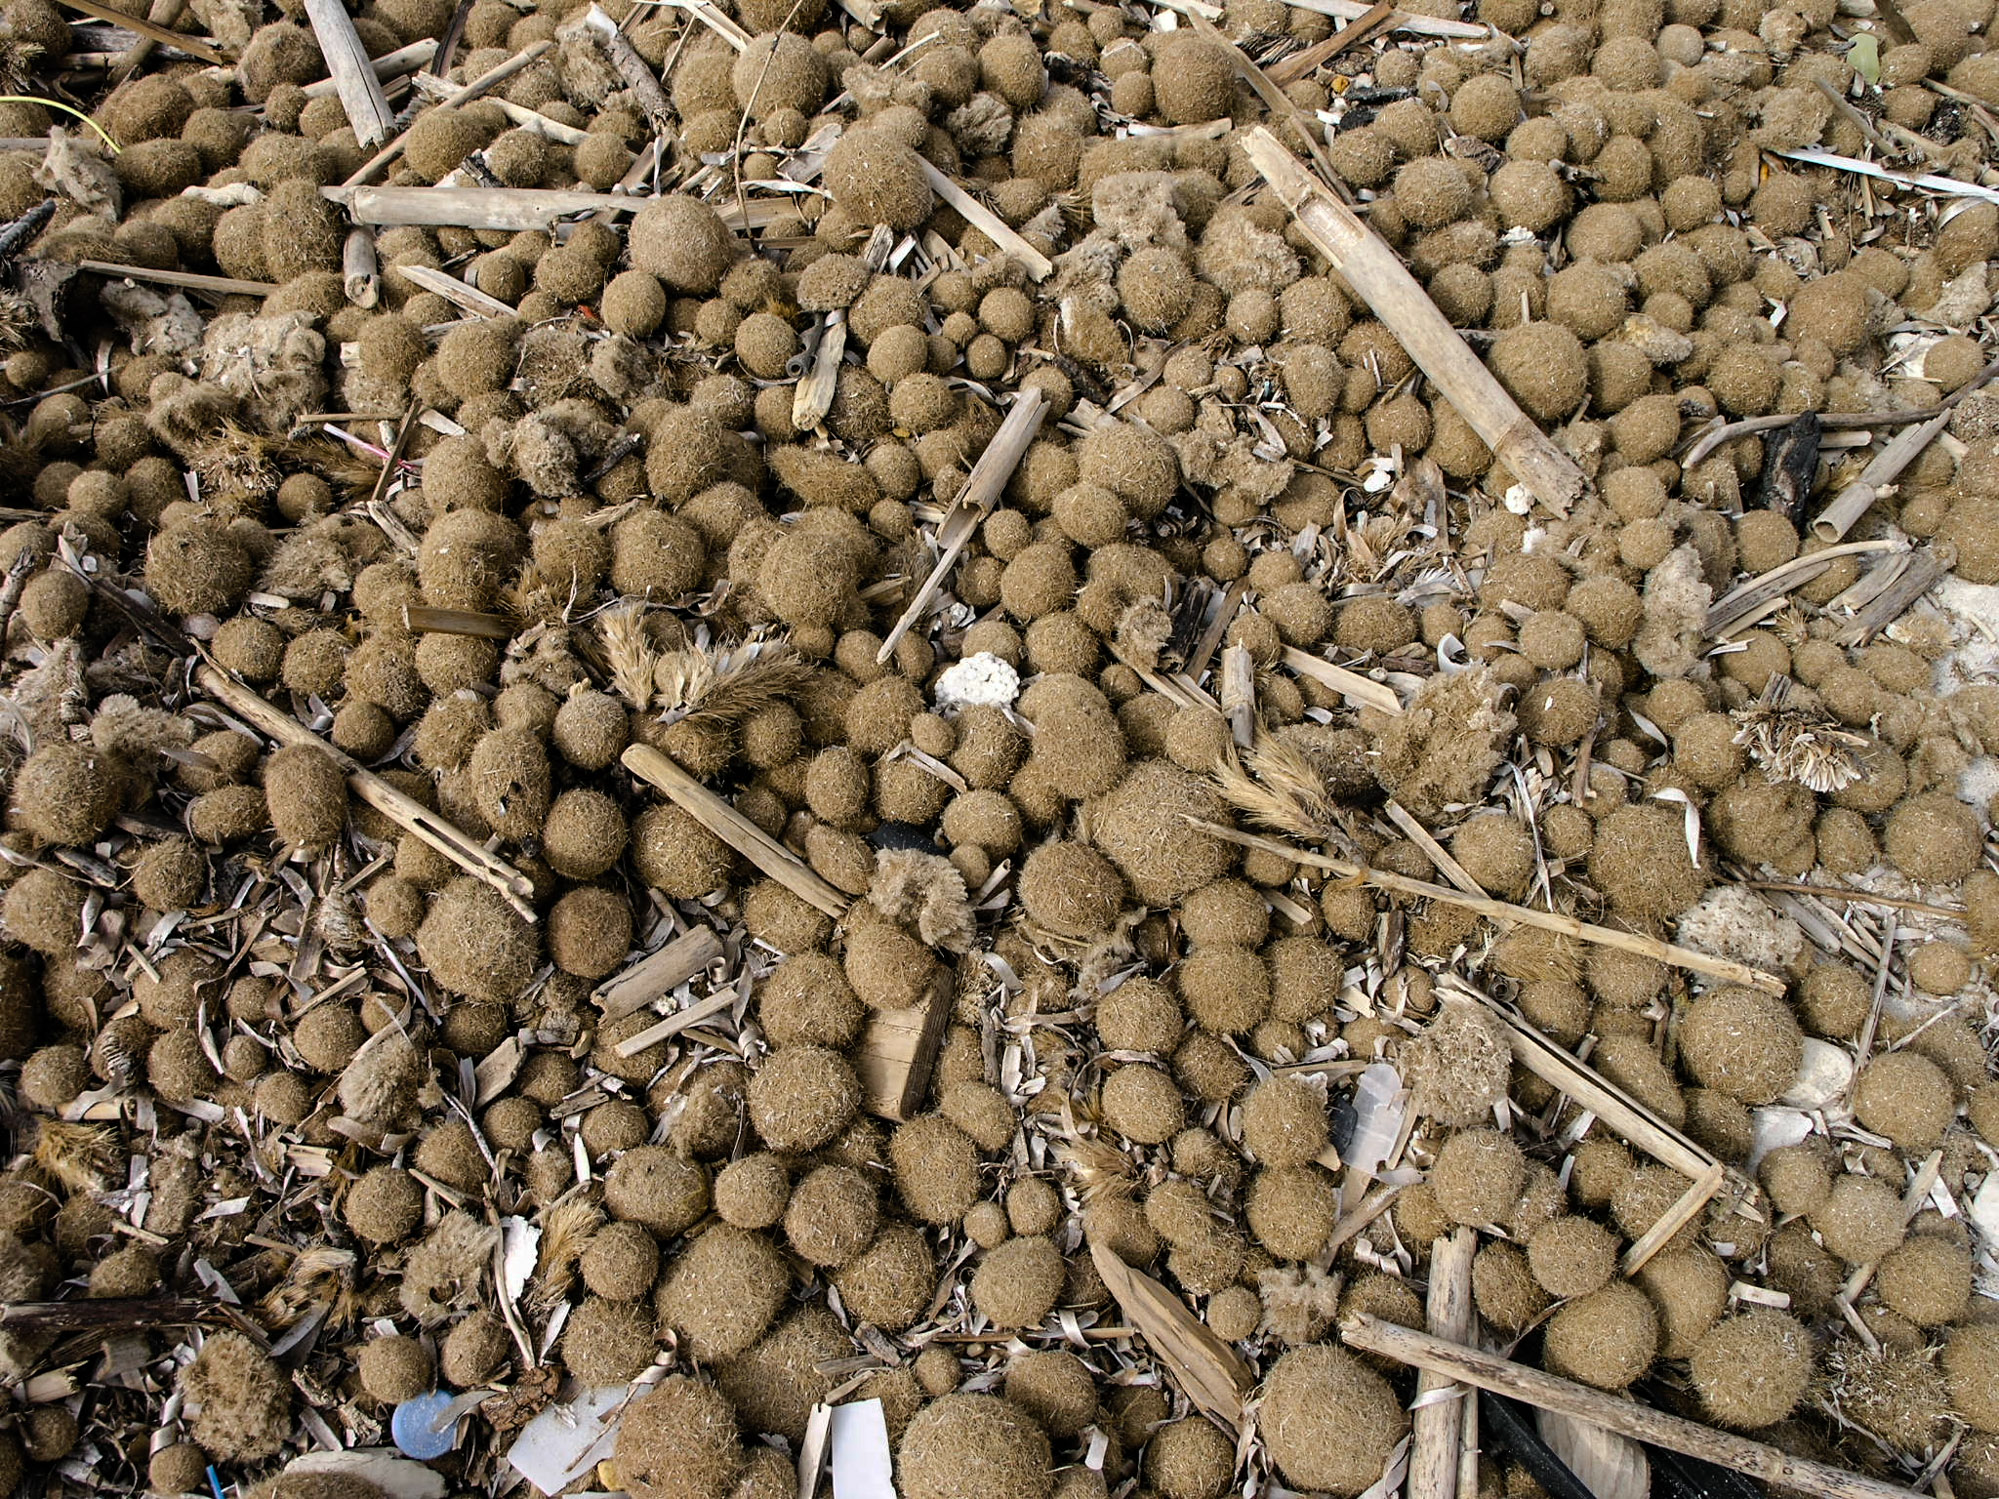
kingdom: Plantae
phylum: Tracheophyta
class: Liliopsida
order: Alismatales
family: Posidoniaceae
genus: Posidonia
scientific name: Posidonia oceanica
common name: Mediterranean tapeweed
